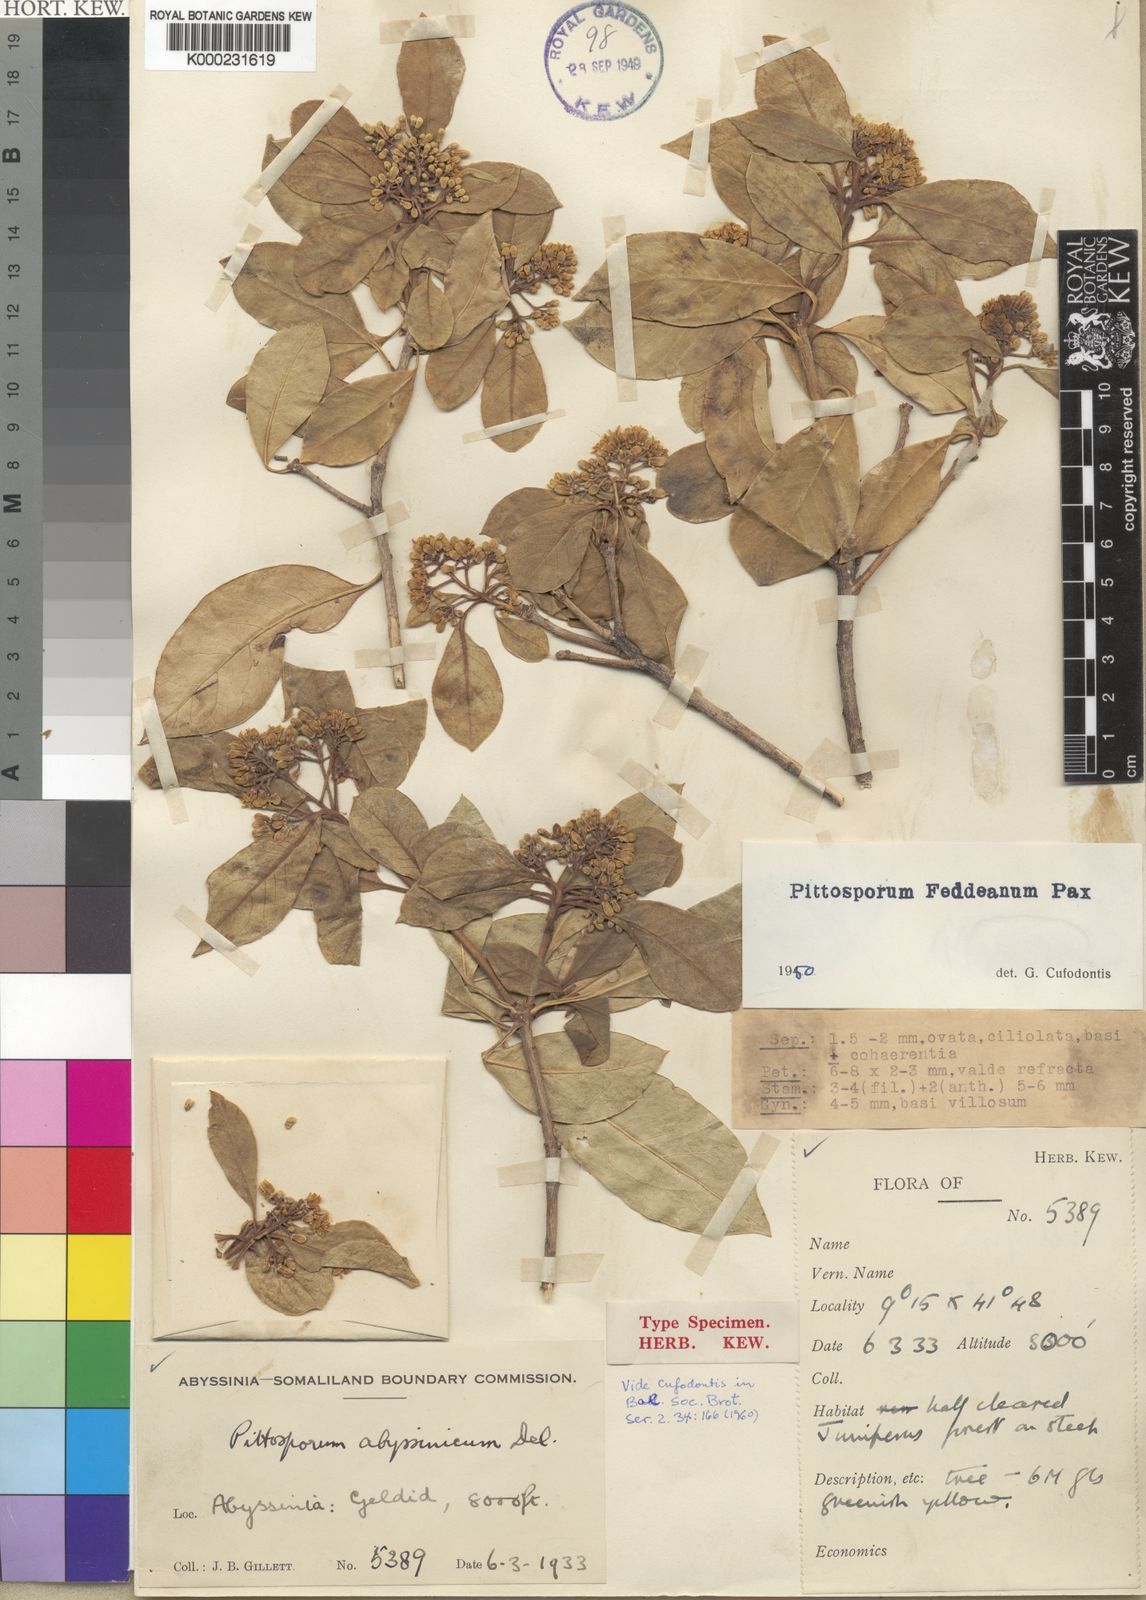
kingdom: Plantae
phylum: Tracheophyta
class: Magnoliopsida
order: Apiales
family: Pittosporaceae
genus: Pittosporum
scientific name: Pittosporum viridiflorum
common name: Cape cheesewood
